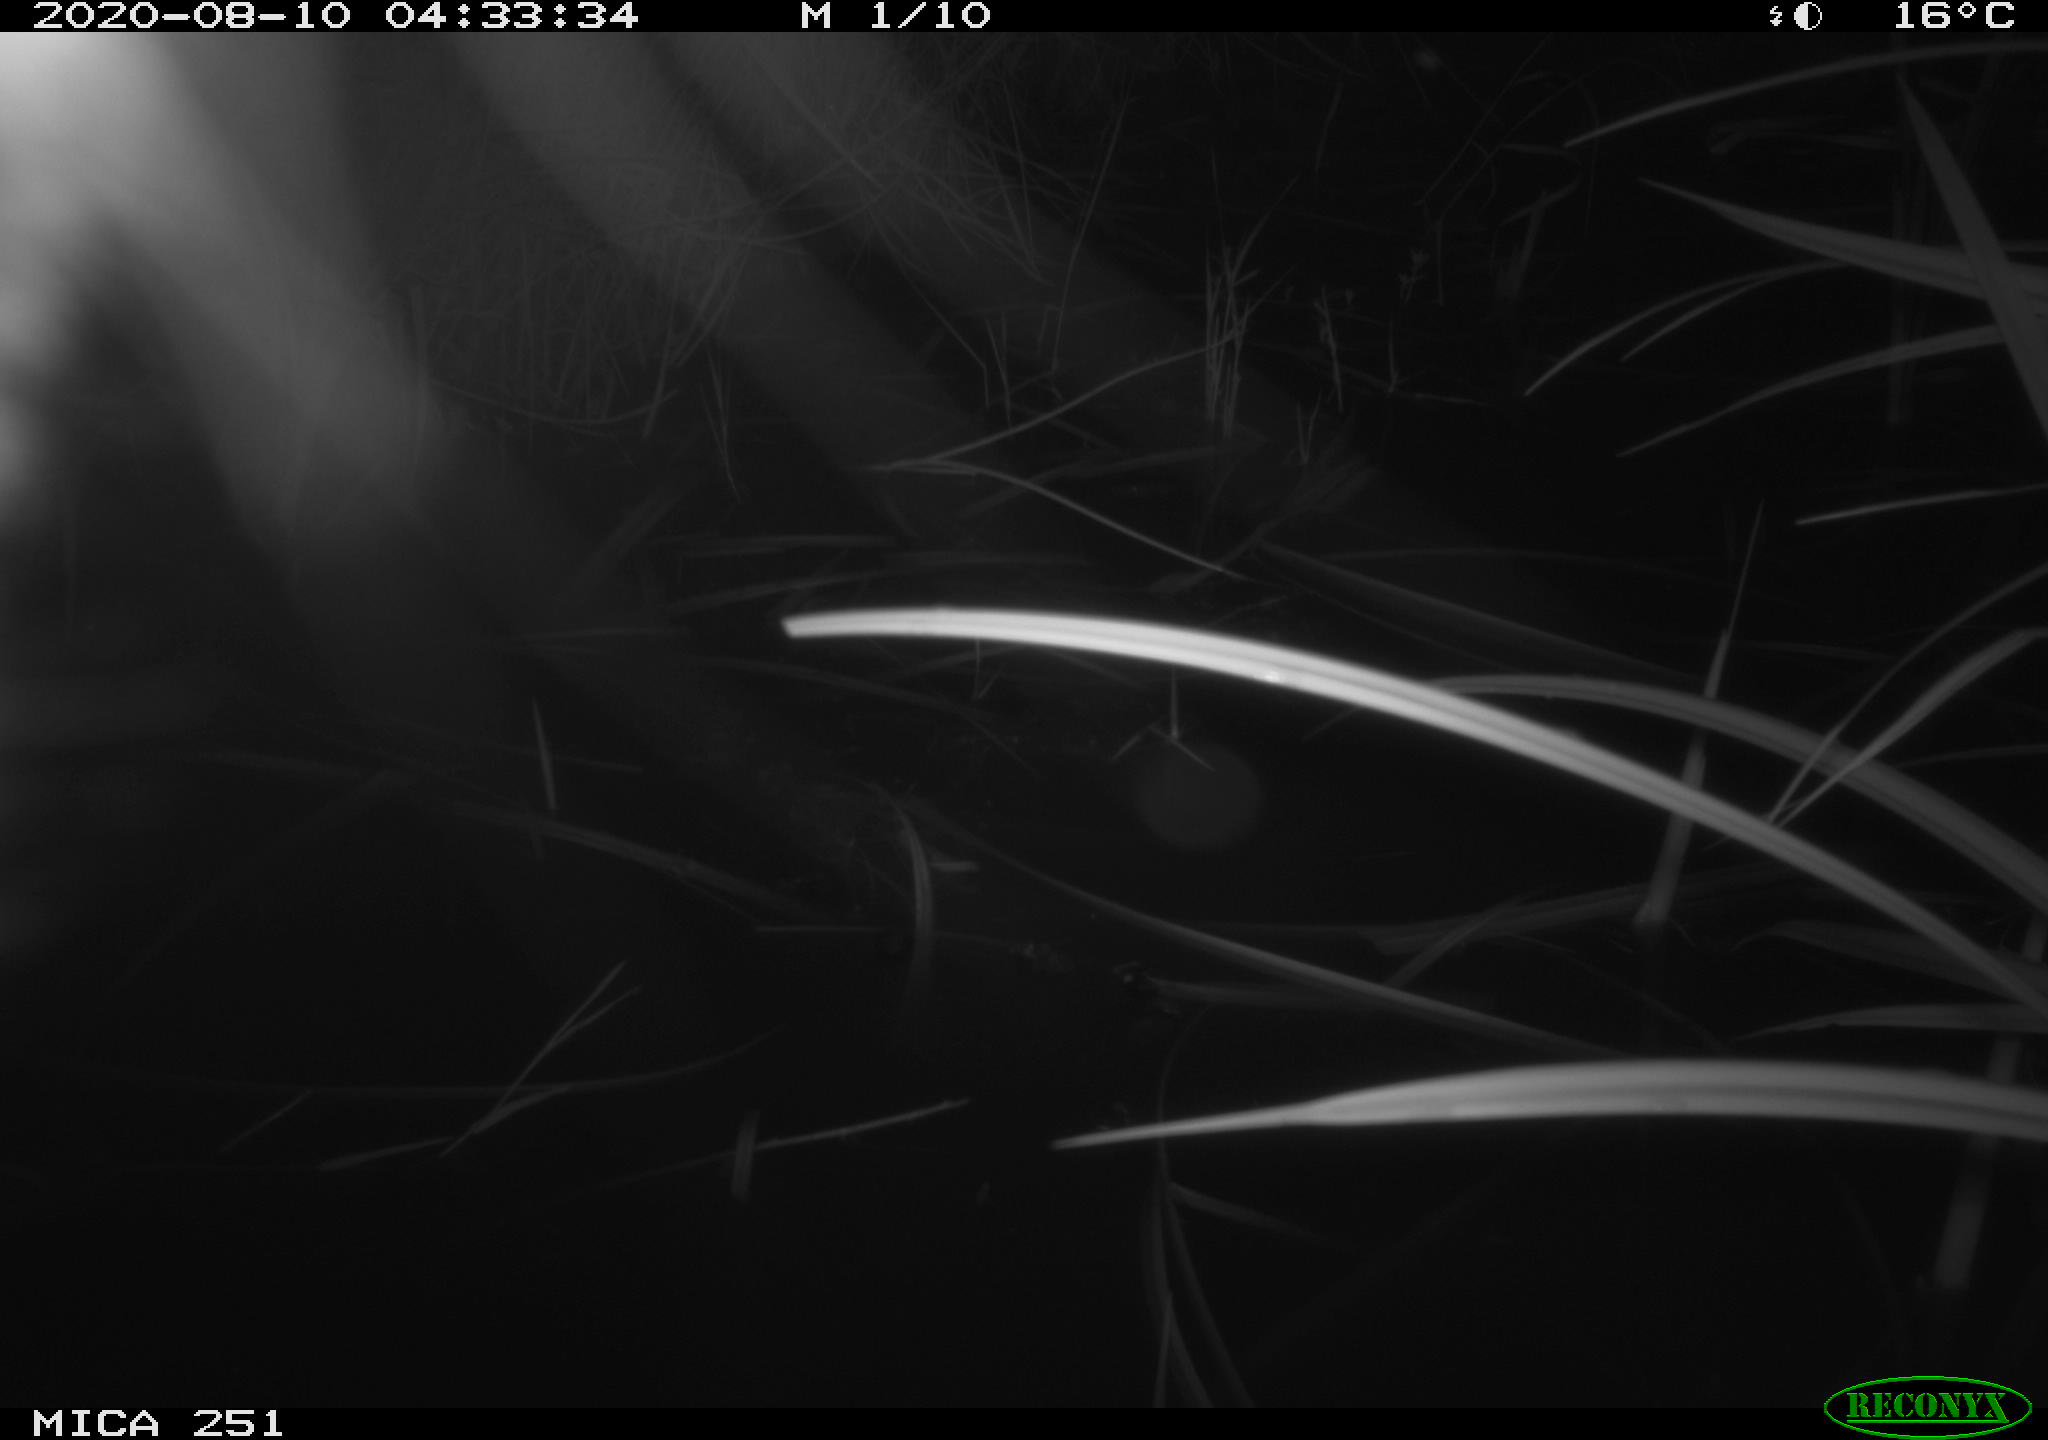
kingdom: Animalia
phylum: Chordata
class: Mammalia
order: Carnivora
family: Canidae
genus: Vulpes
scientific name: Vulpes vulpes
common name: Red fox
